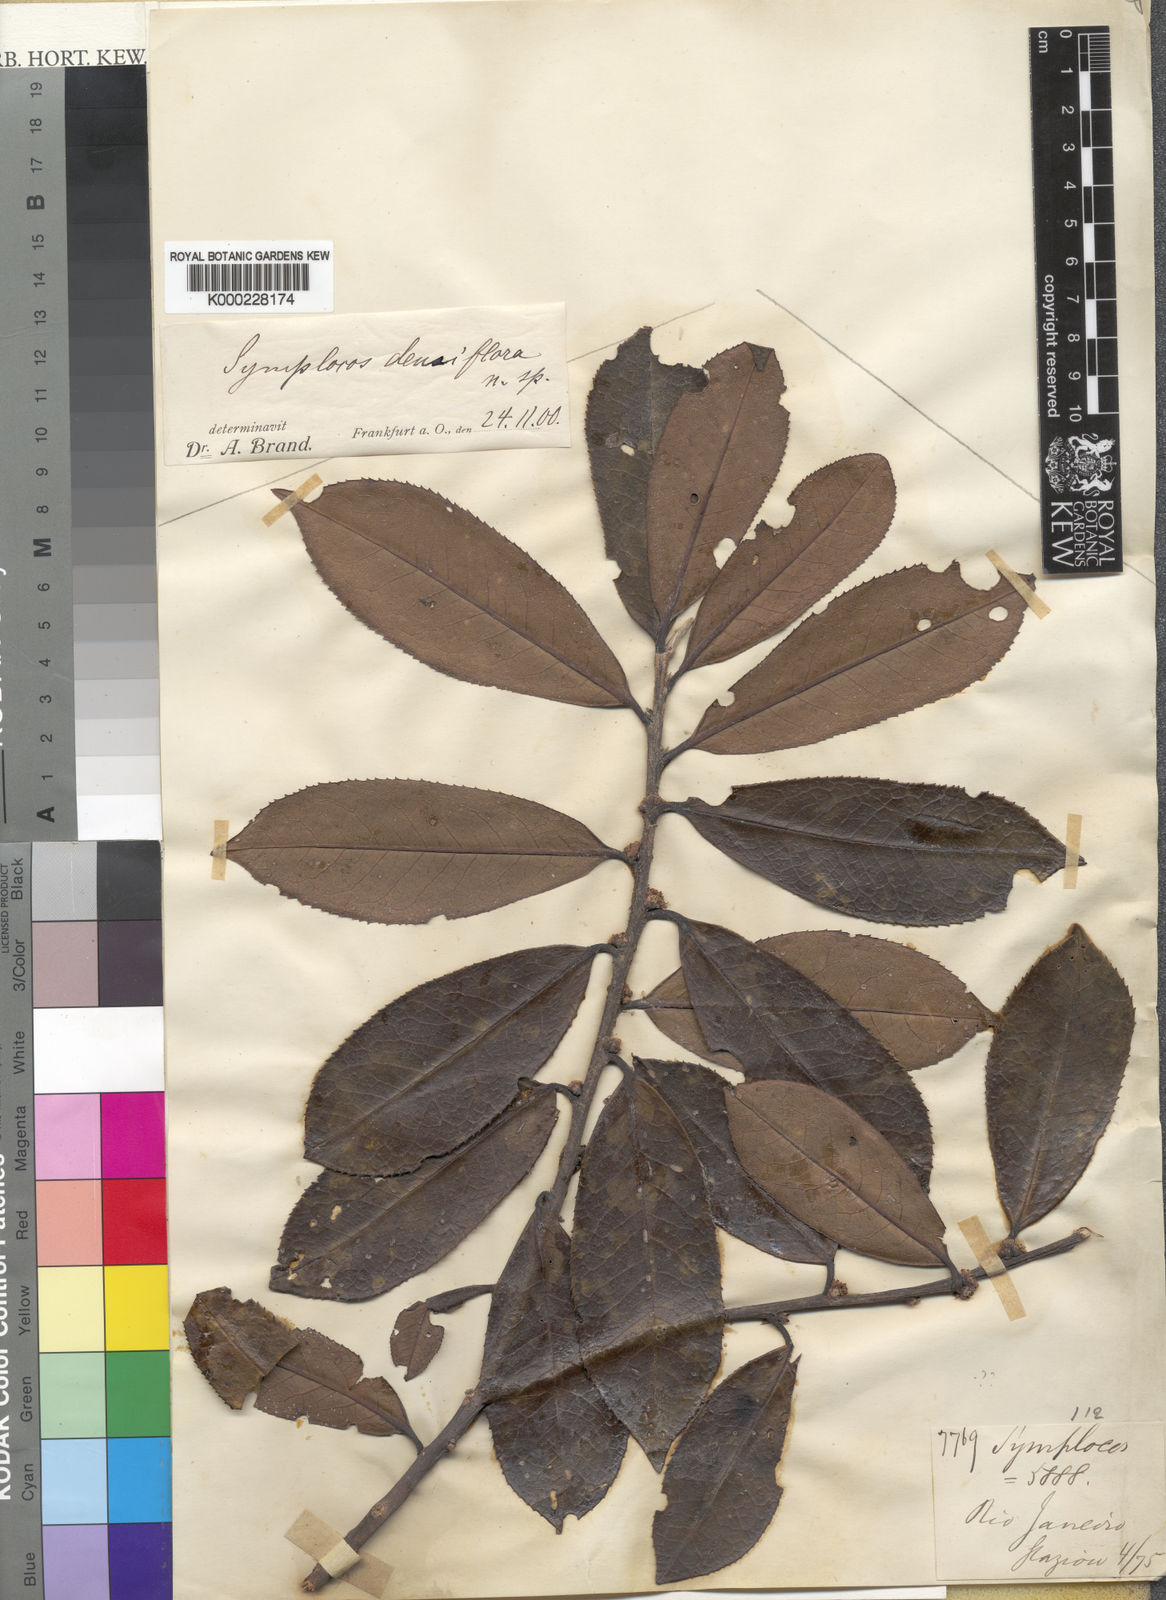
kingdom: Plantae
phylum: Tracheophyta
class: Magnoliopsida
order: Ericales
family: Symplocaceae
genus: Symplocos
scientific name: Symplocos falcata
